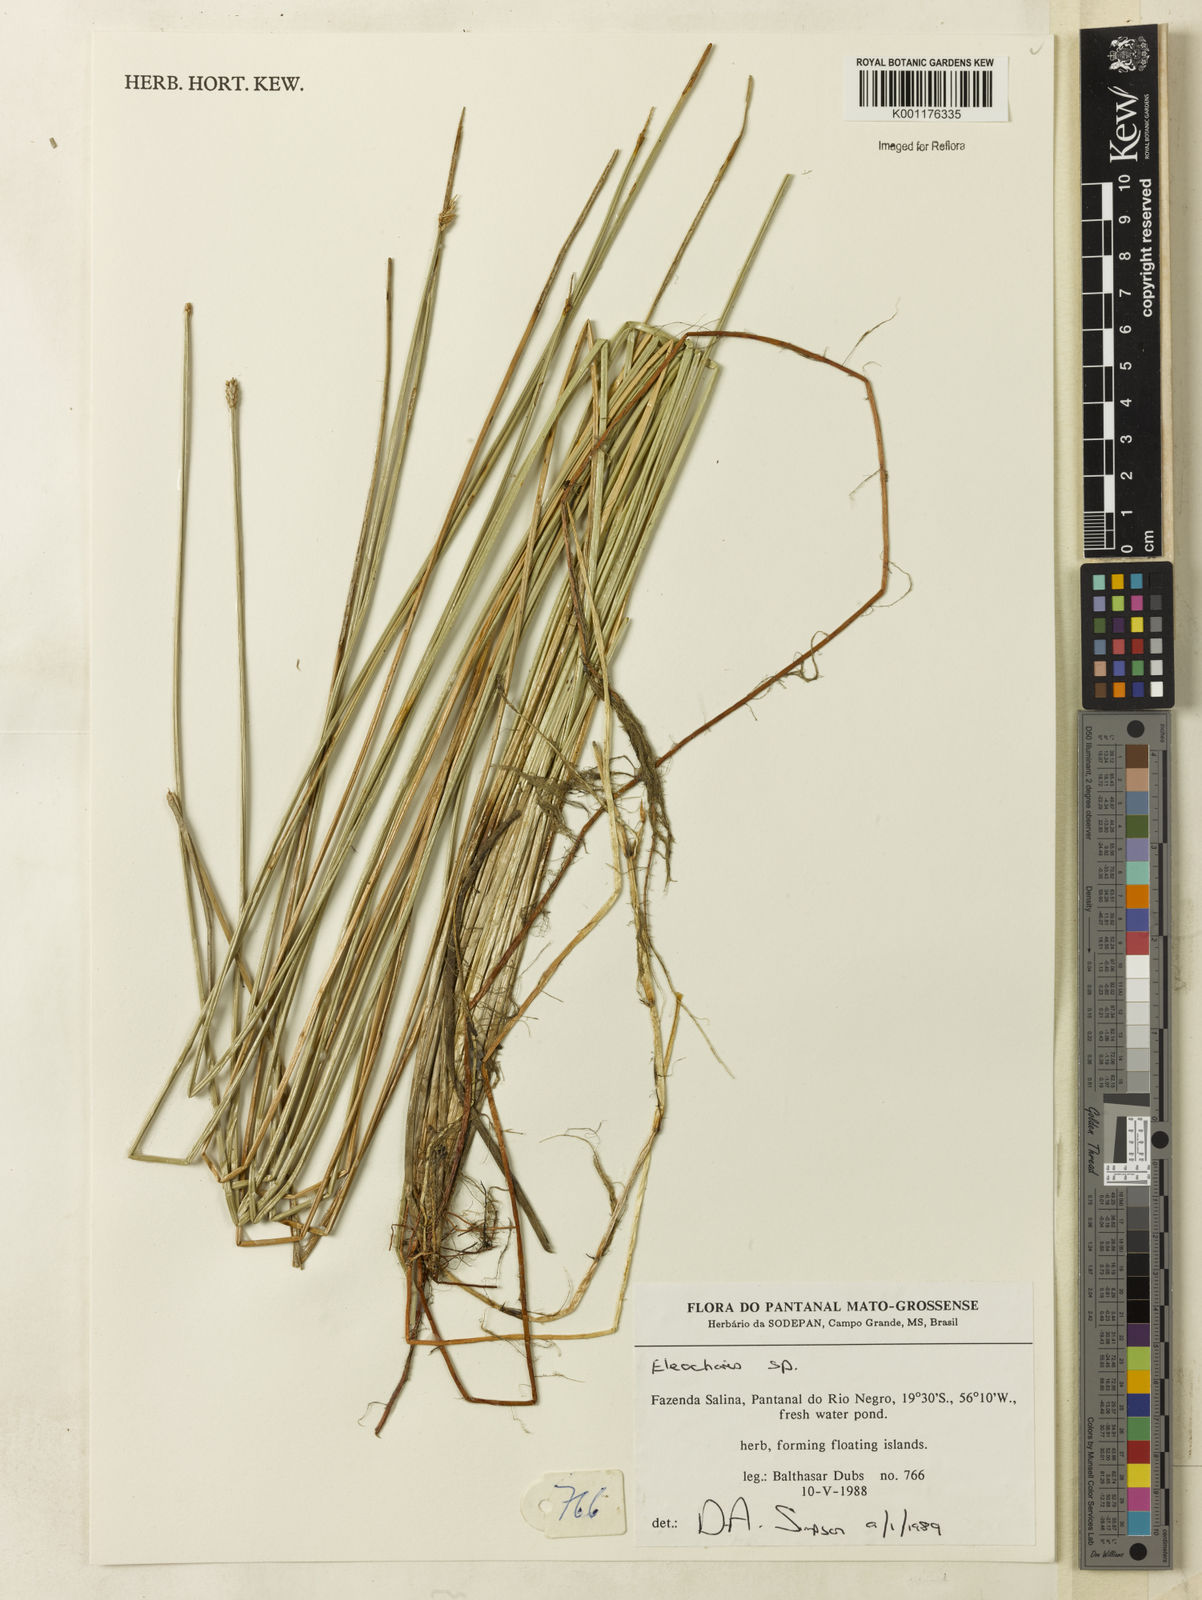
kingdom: Plantae
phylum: Tracheophyta
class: Liliopsida
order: Poales
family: Cyperaceae
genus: Eleocharis
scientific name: Eleocharis
